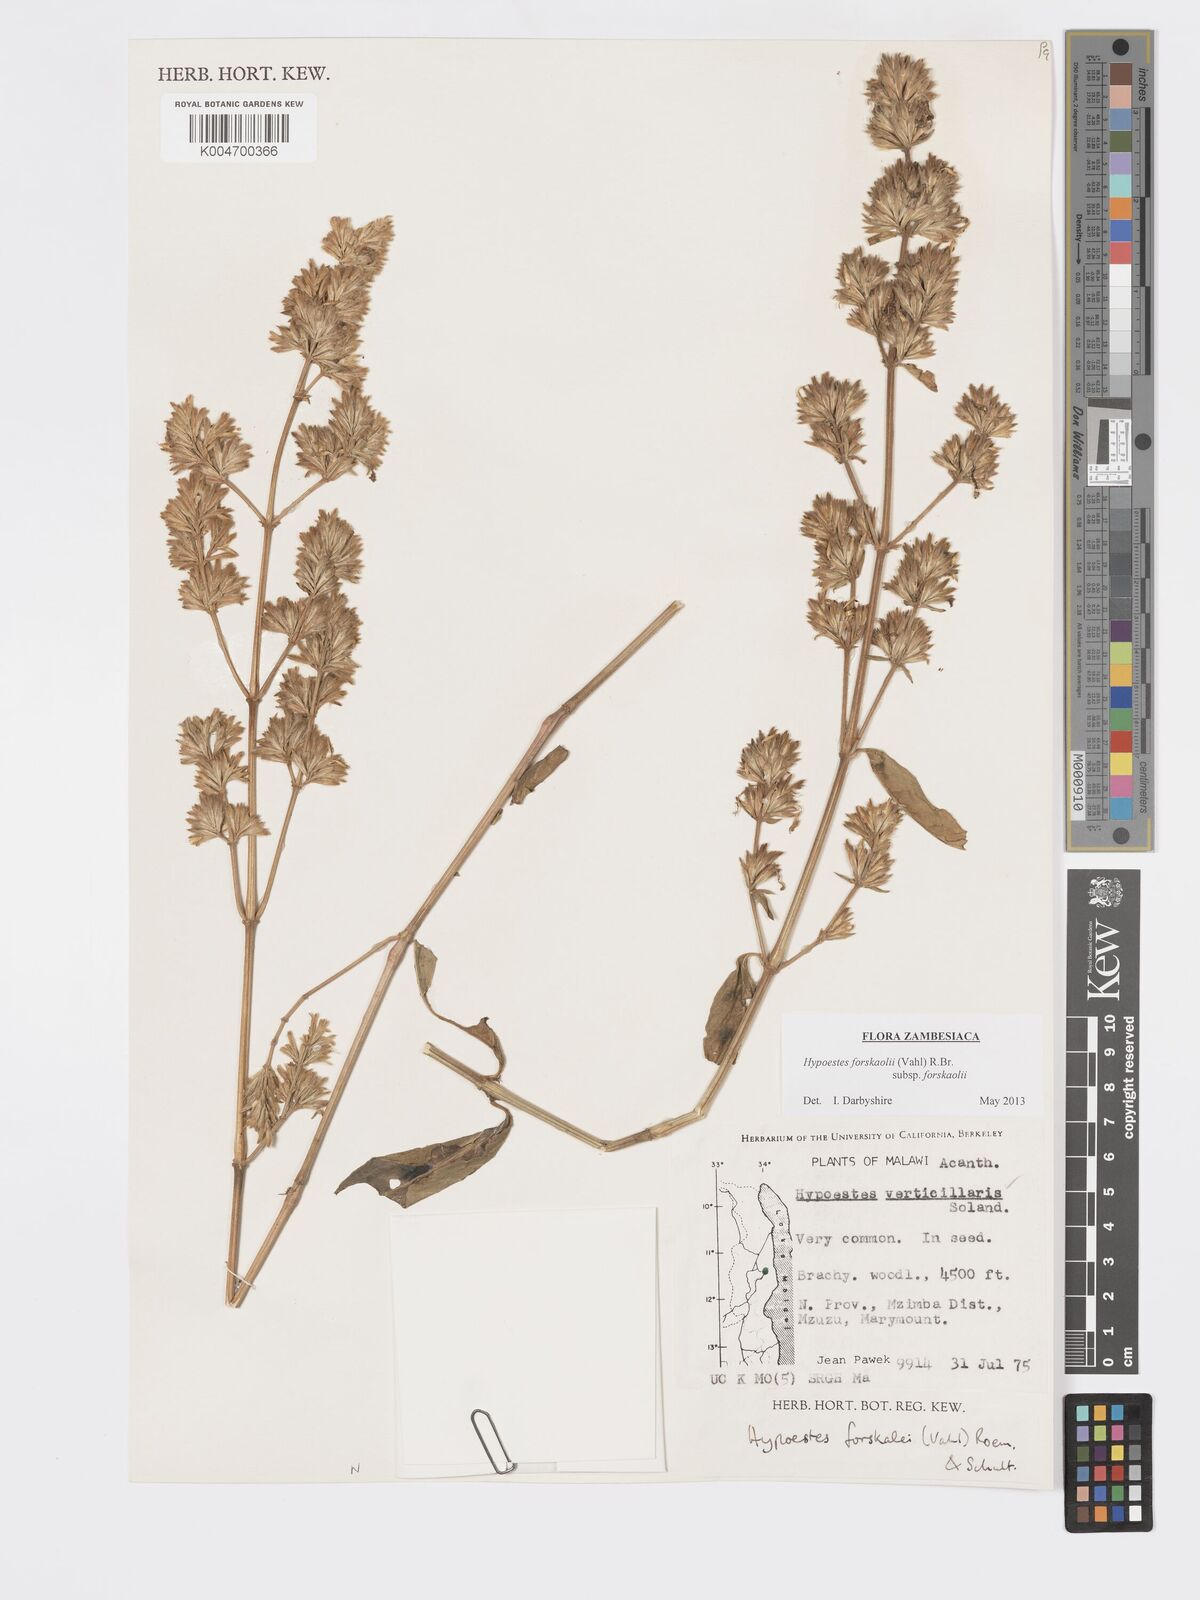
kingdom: Plantae
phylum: Tracheophyta
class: Magnoliopsida
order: Lamiales
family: Acanthaceae
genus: Hypoestes
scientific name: Hypoestes forskaolii
